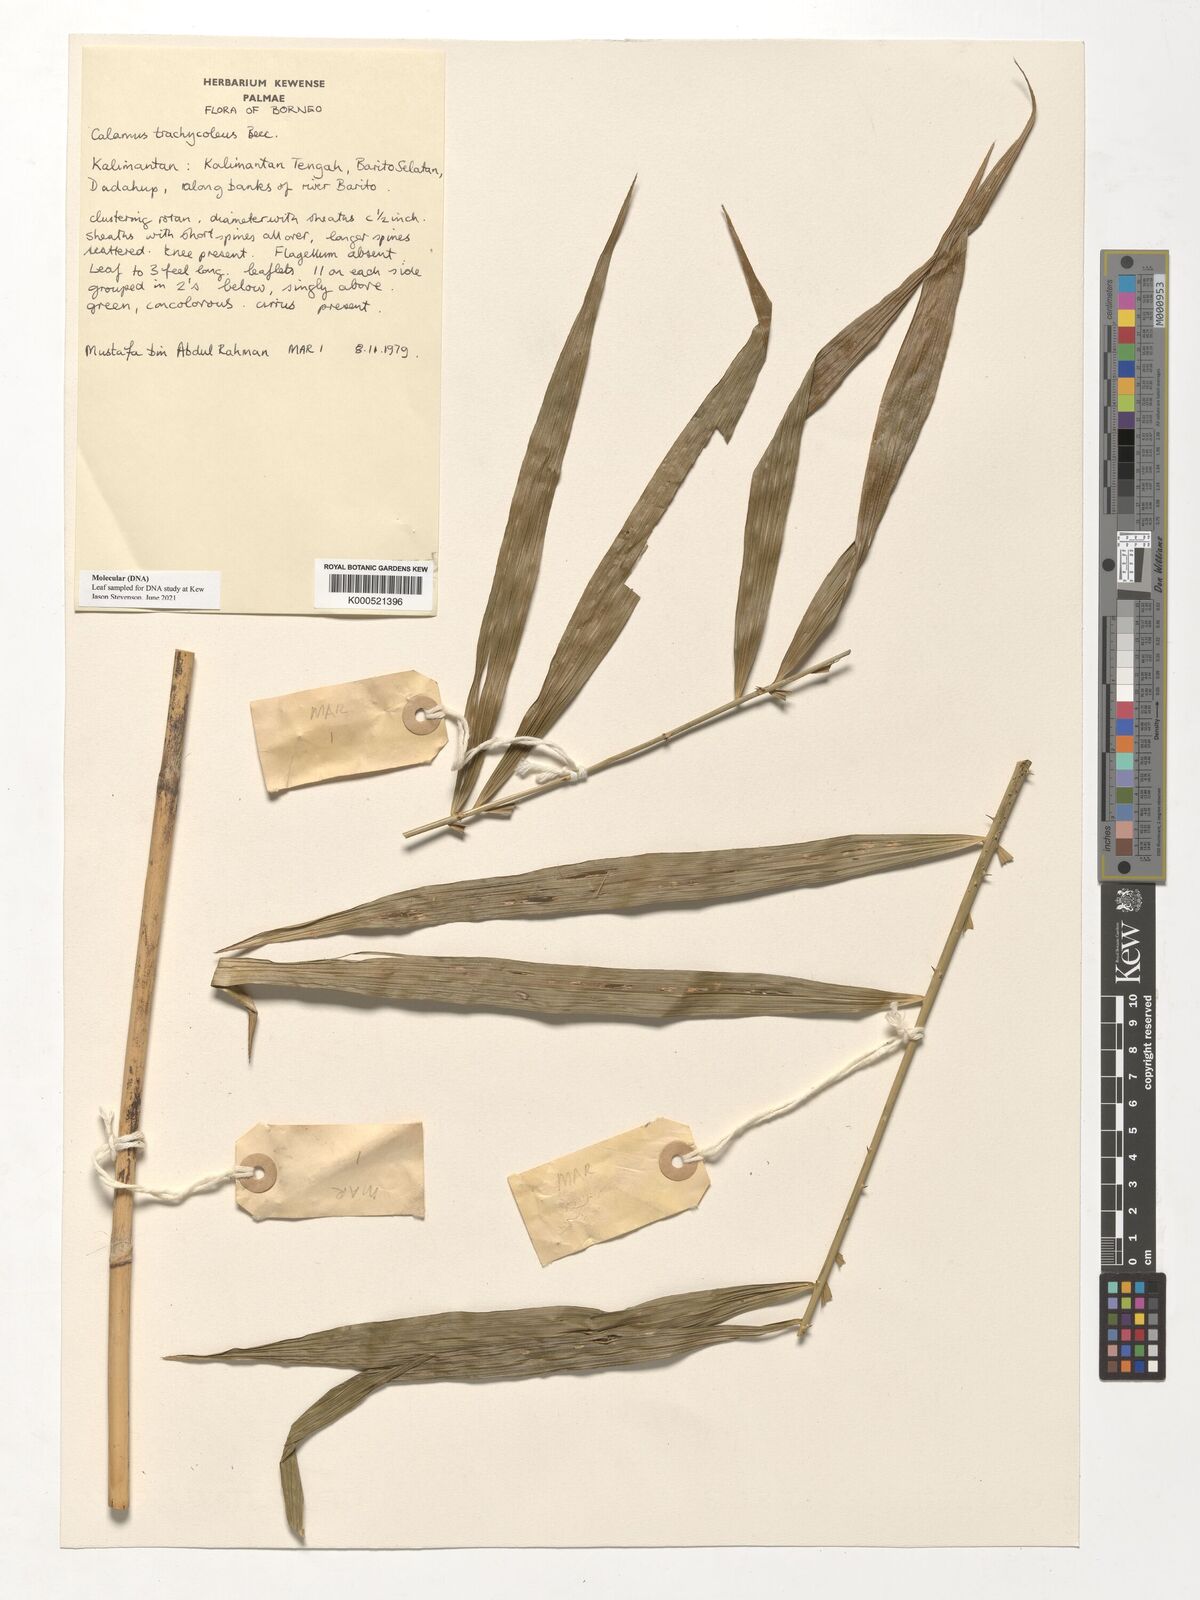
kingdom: Plantae
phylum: Tracheophyta
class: Liliopsida
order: Arecales
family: Arecaceae
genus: Calamus
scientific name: Calamus trachycoleus
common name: Rattan palm
